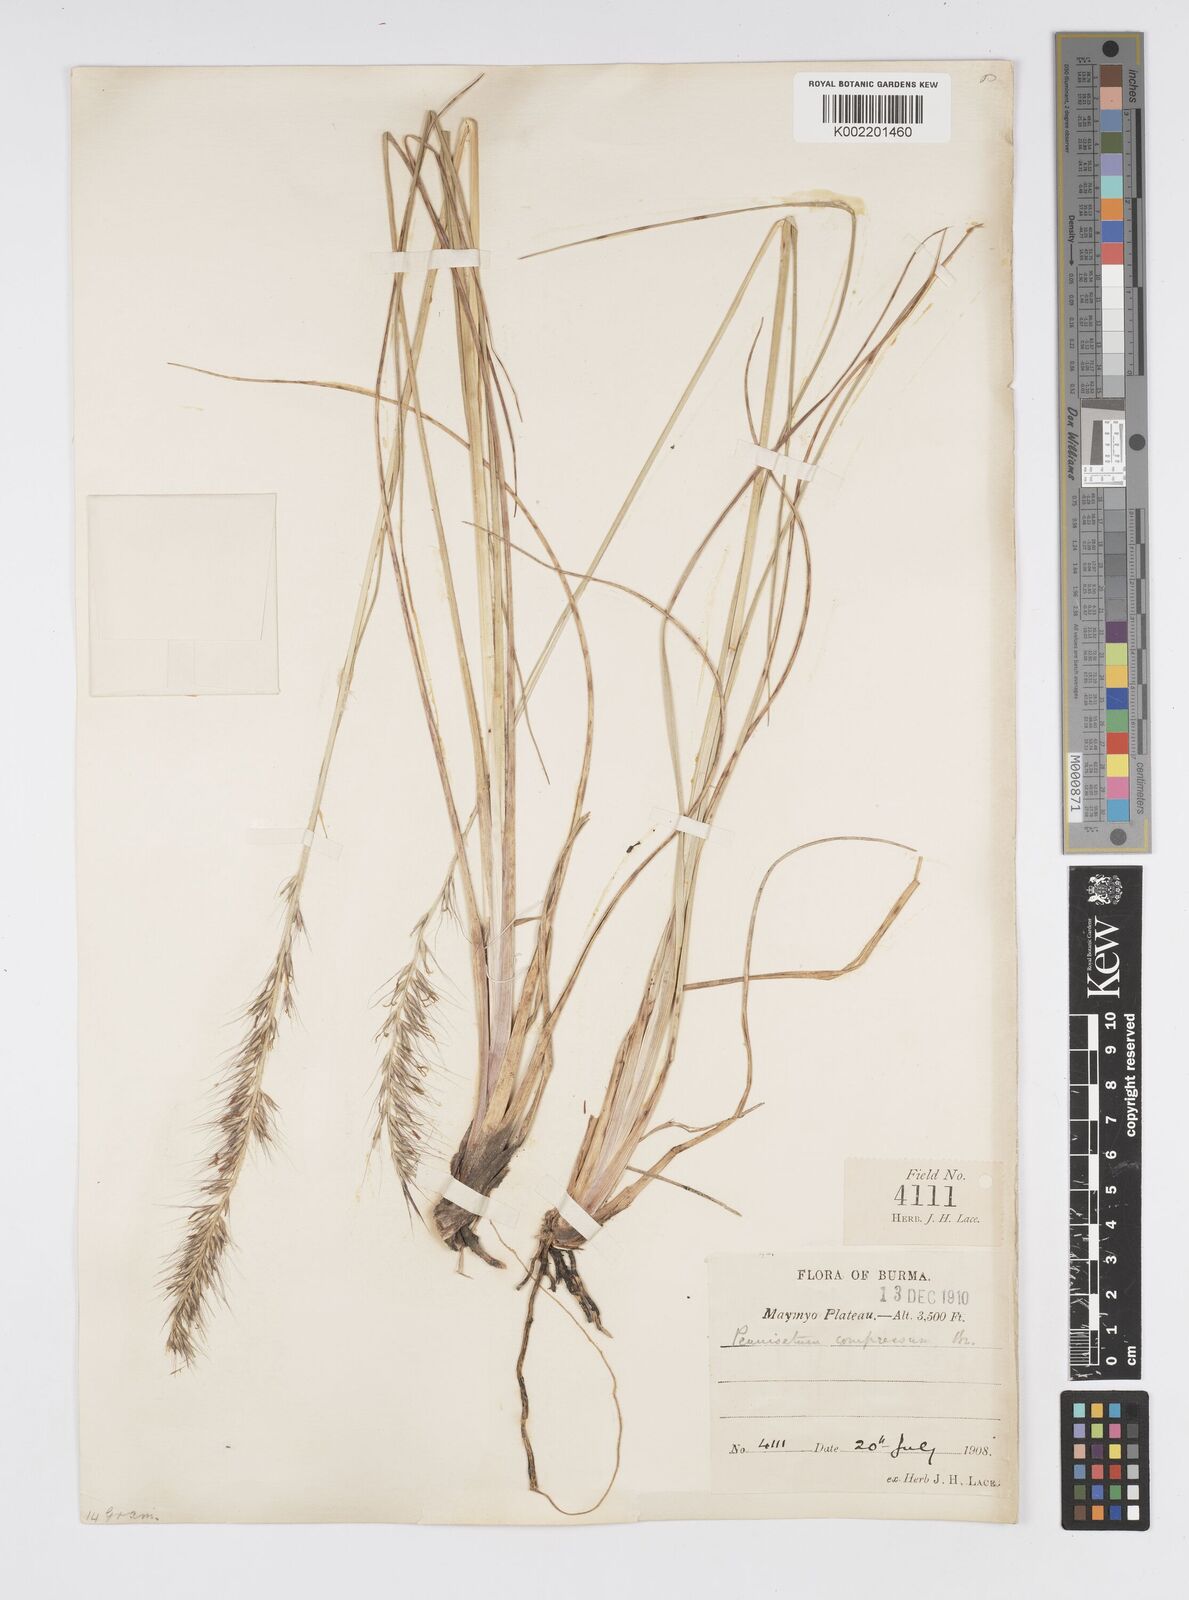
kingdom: Plantae
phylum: Tracheophyta
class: Liliopsida
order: Poales
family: Poaceae
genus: Cenchrus
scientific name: Cenchrus alopecuroides
